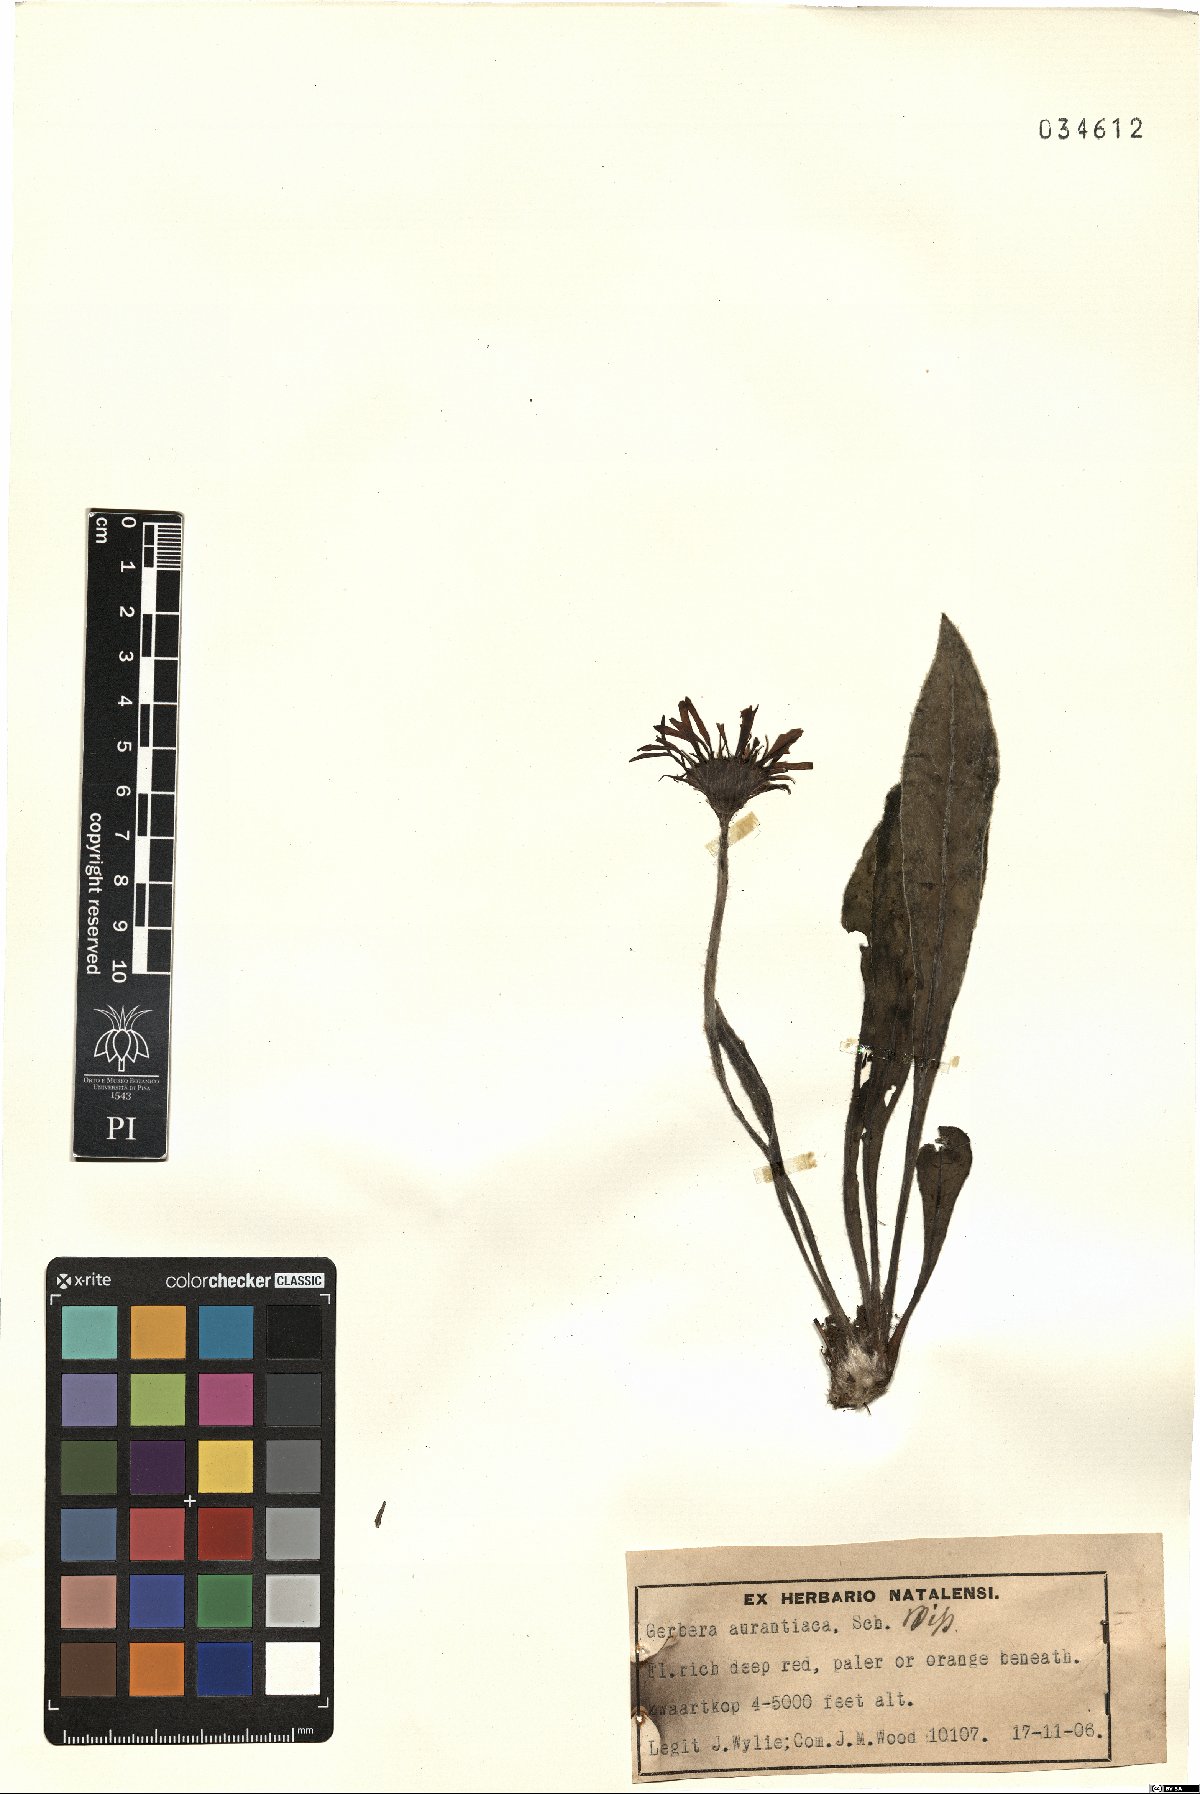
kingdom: Plantae
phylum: Tracheophyta
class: Magnoliopsida
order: Asterales
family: Asteraceae
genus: Gerbera
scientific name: Gerbera aurantiaca
